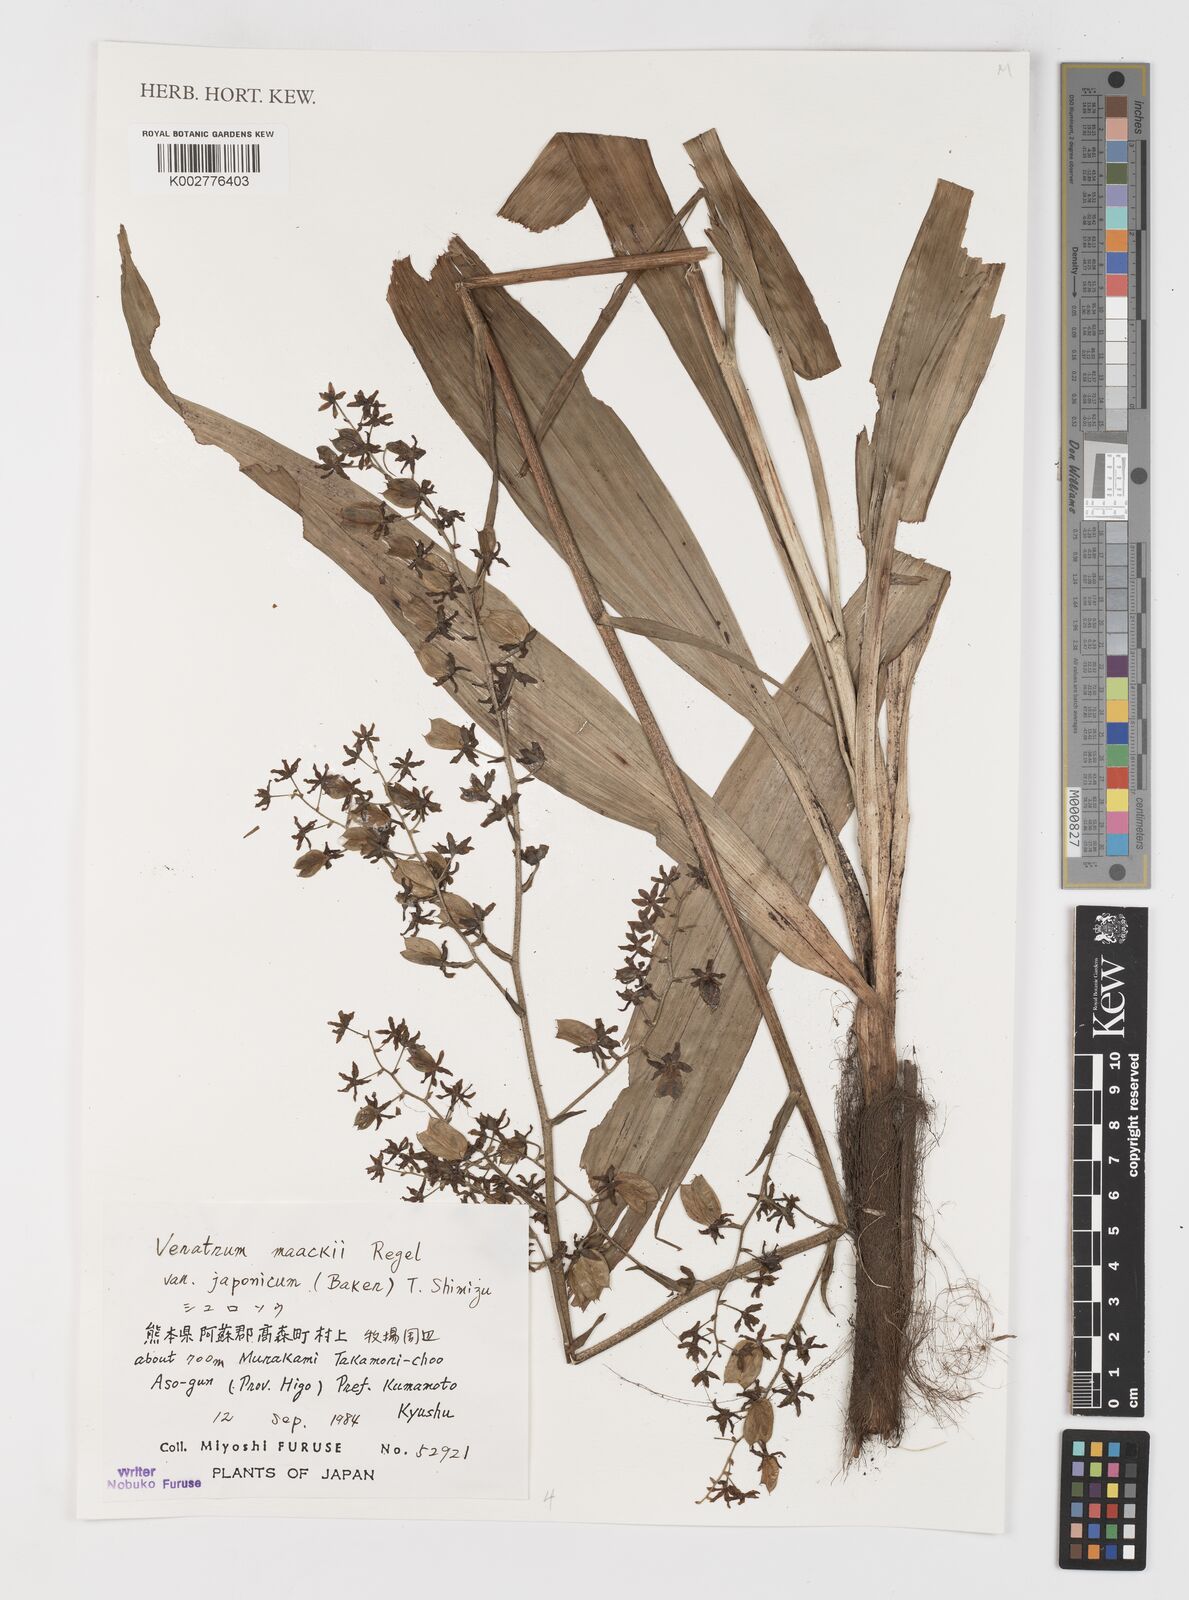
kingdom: Plantae
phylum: Tracheophyta
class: Liliopsida
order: Liliales
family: Melanthiaceae
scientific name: Melanthiaceae
